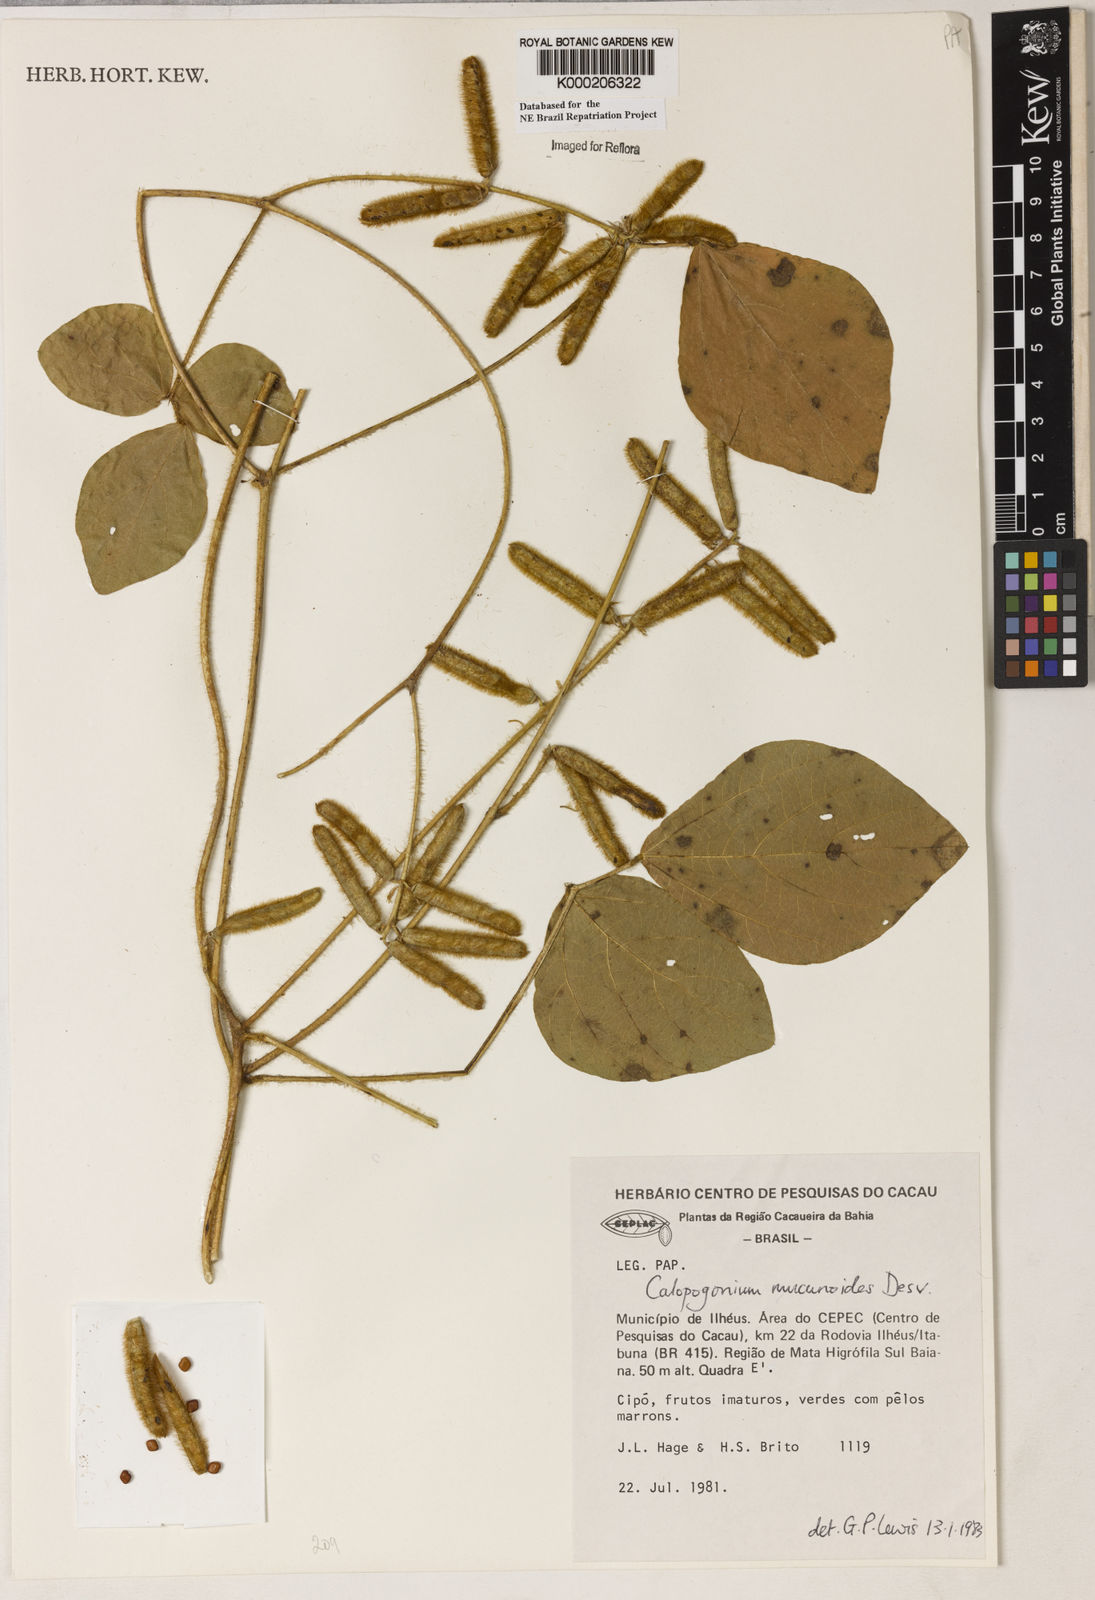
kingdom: Plantae
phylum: Tracheophyta
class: Magnoliopsida
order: Fabales
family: Fabaceae
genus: Calopogonium
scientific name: Calopogonium mucunoides
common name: Calopo
